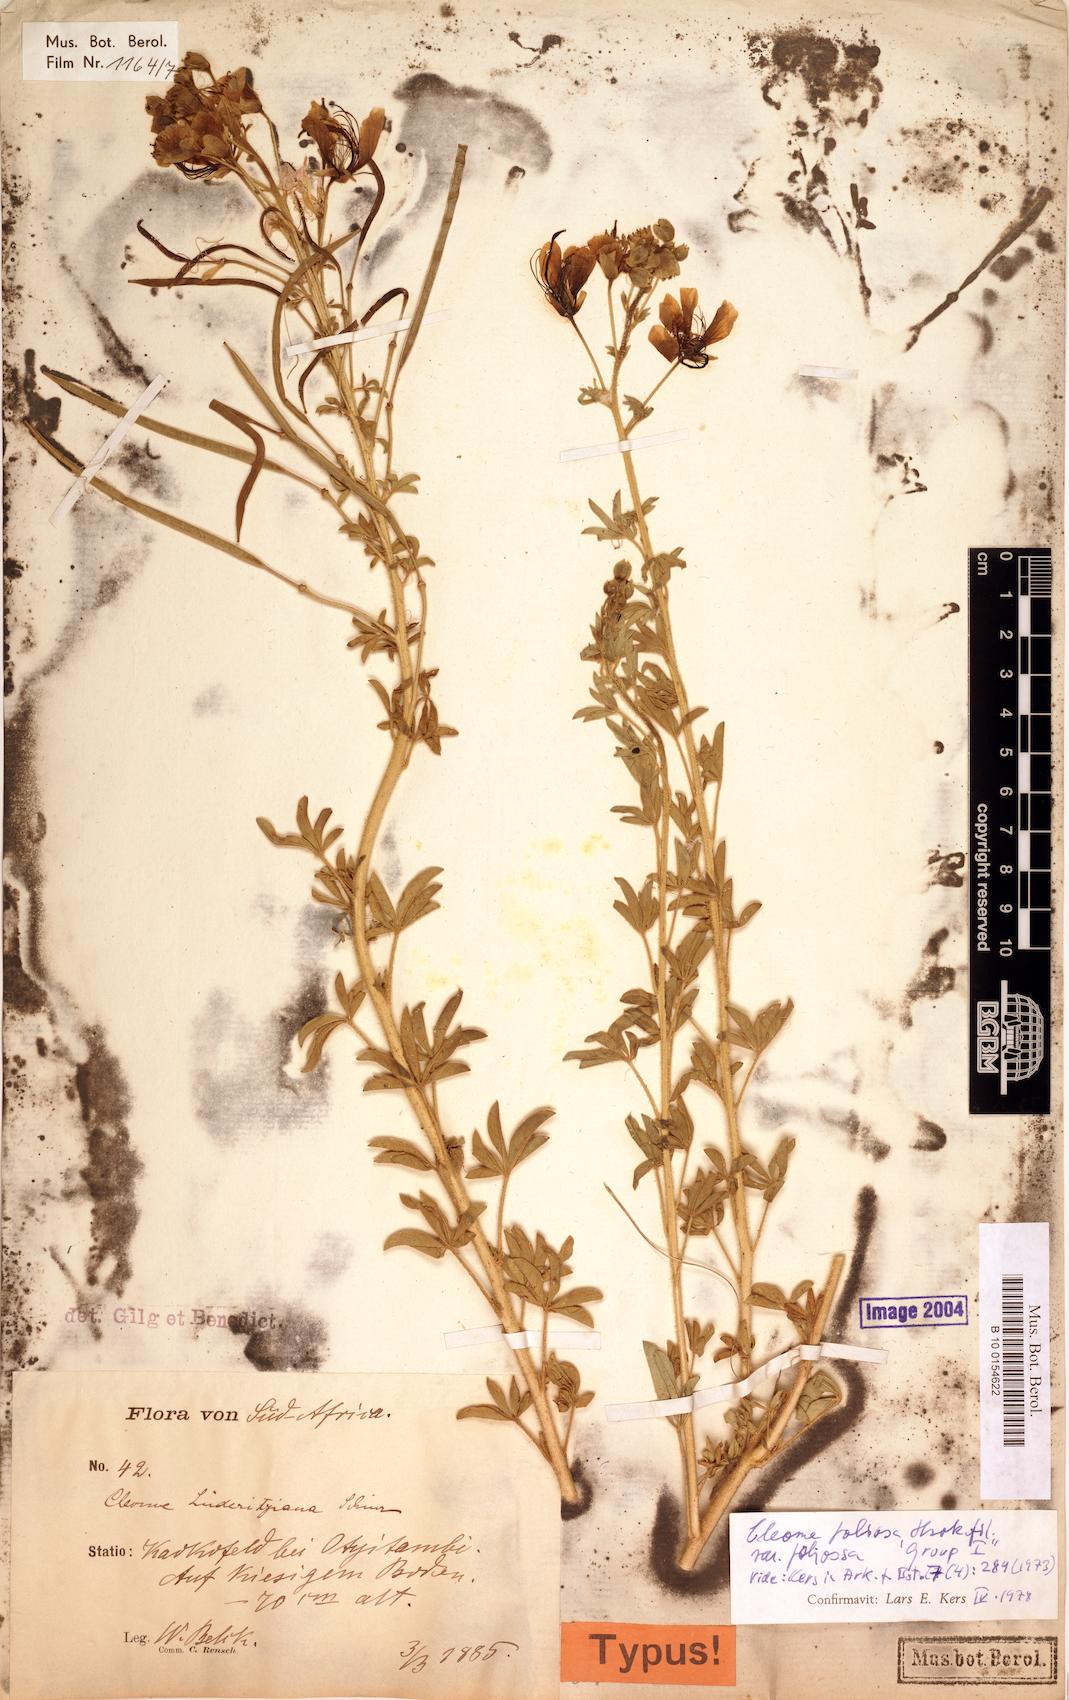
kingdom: Plantae
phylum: Tracheophyta
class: Magnoliopsida
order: Brassicales
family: Cleomaceae
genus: Kersia
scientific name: Kersia foliosa
